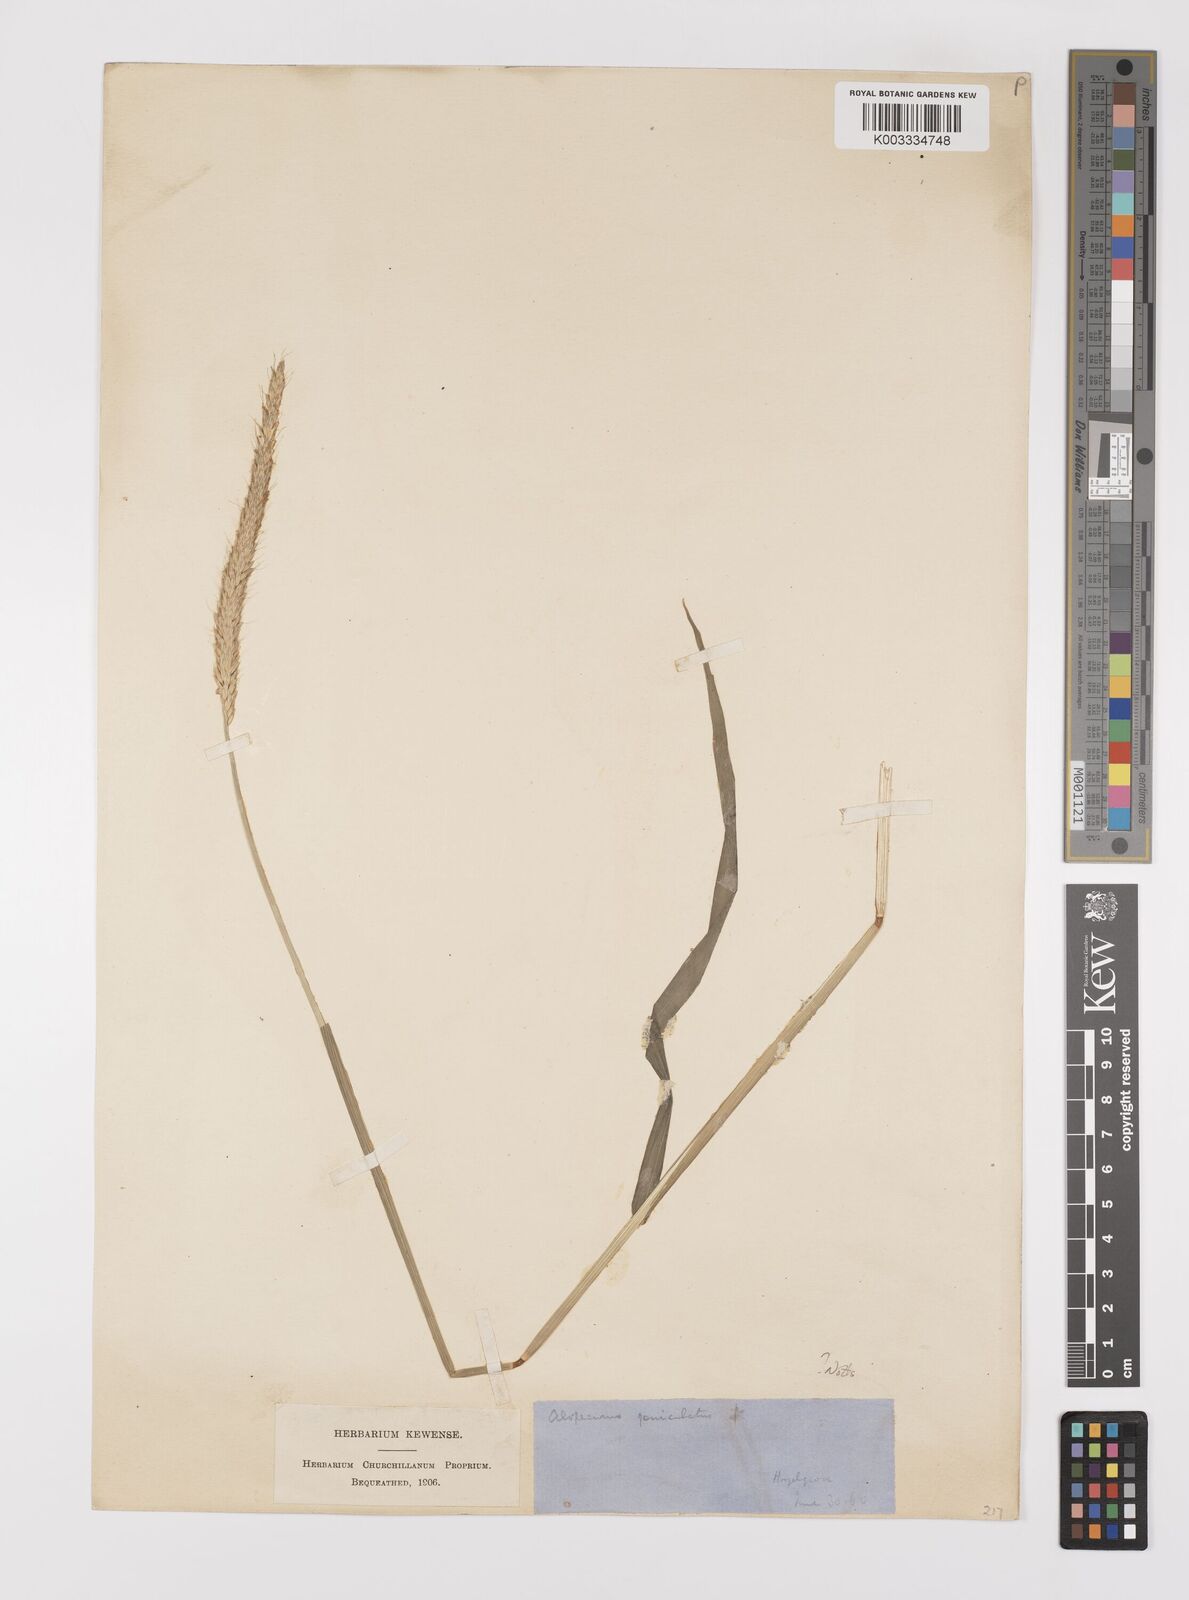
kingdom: Plantae
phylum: Tracheophyta
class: Liliopsida
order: Poales
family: Poaceae
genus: Alopecurus
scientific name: Alopecurus myosuroides
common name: Black-grass
